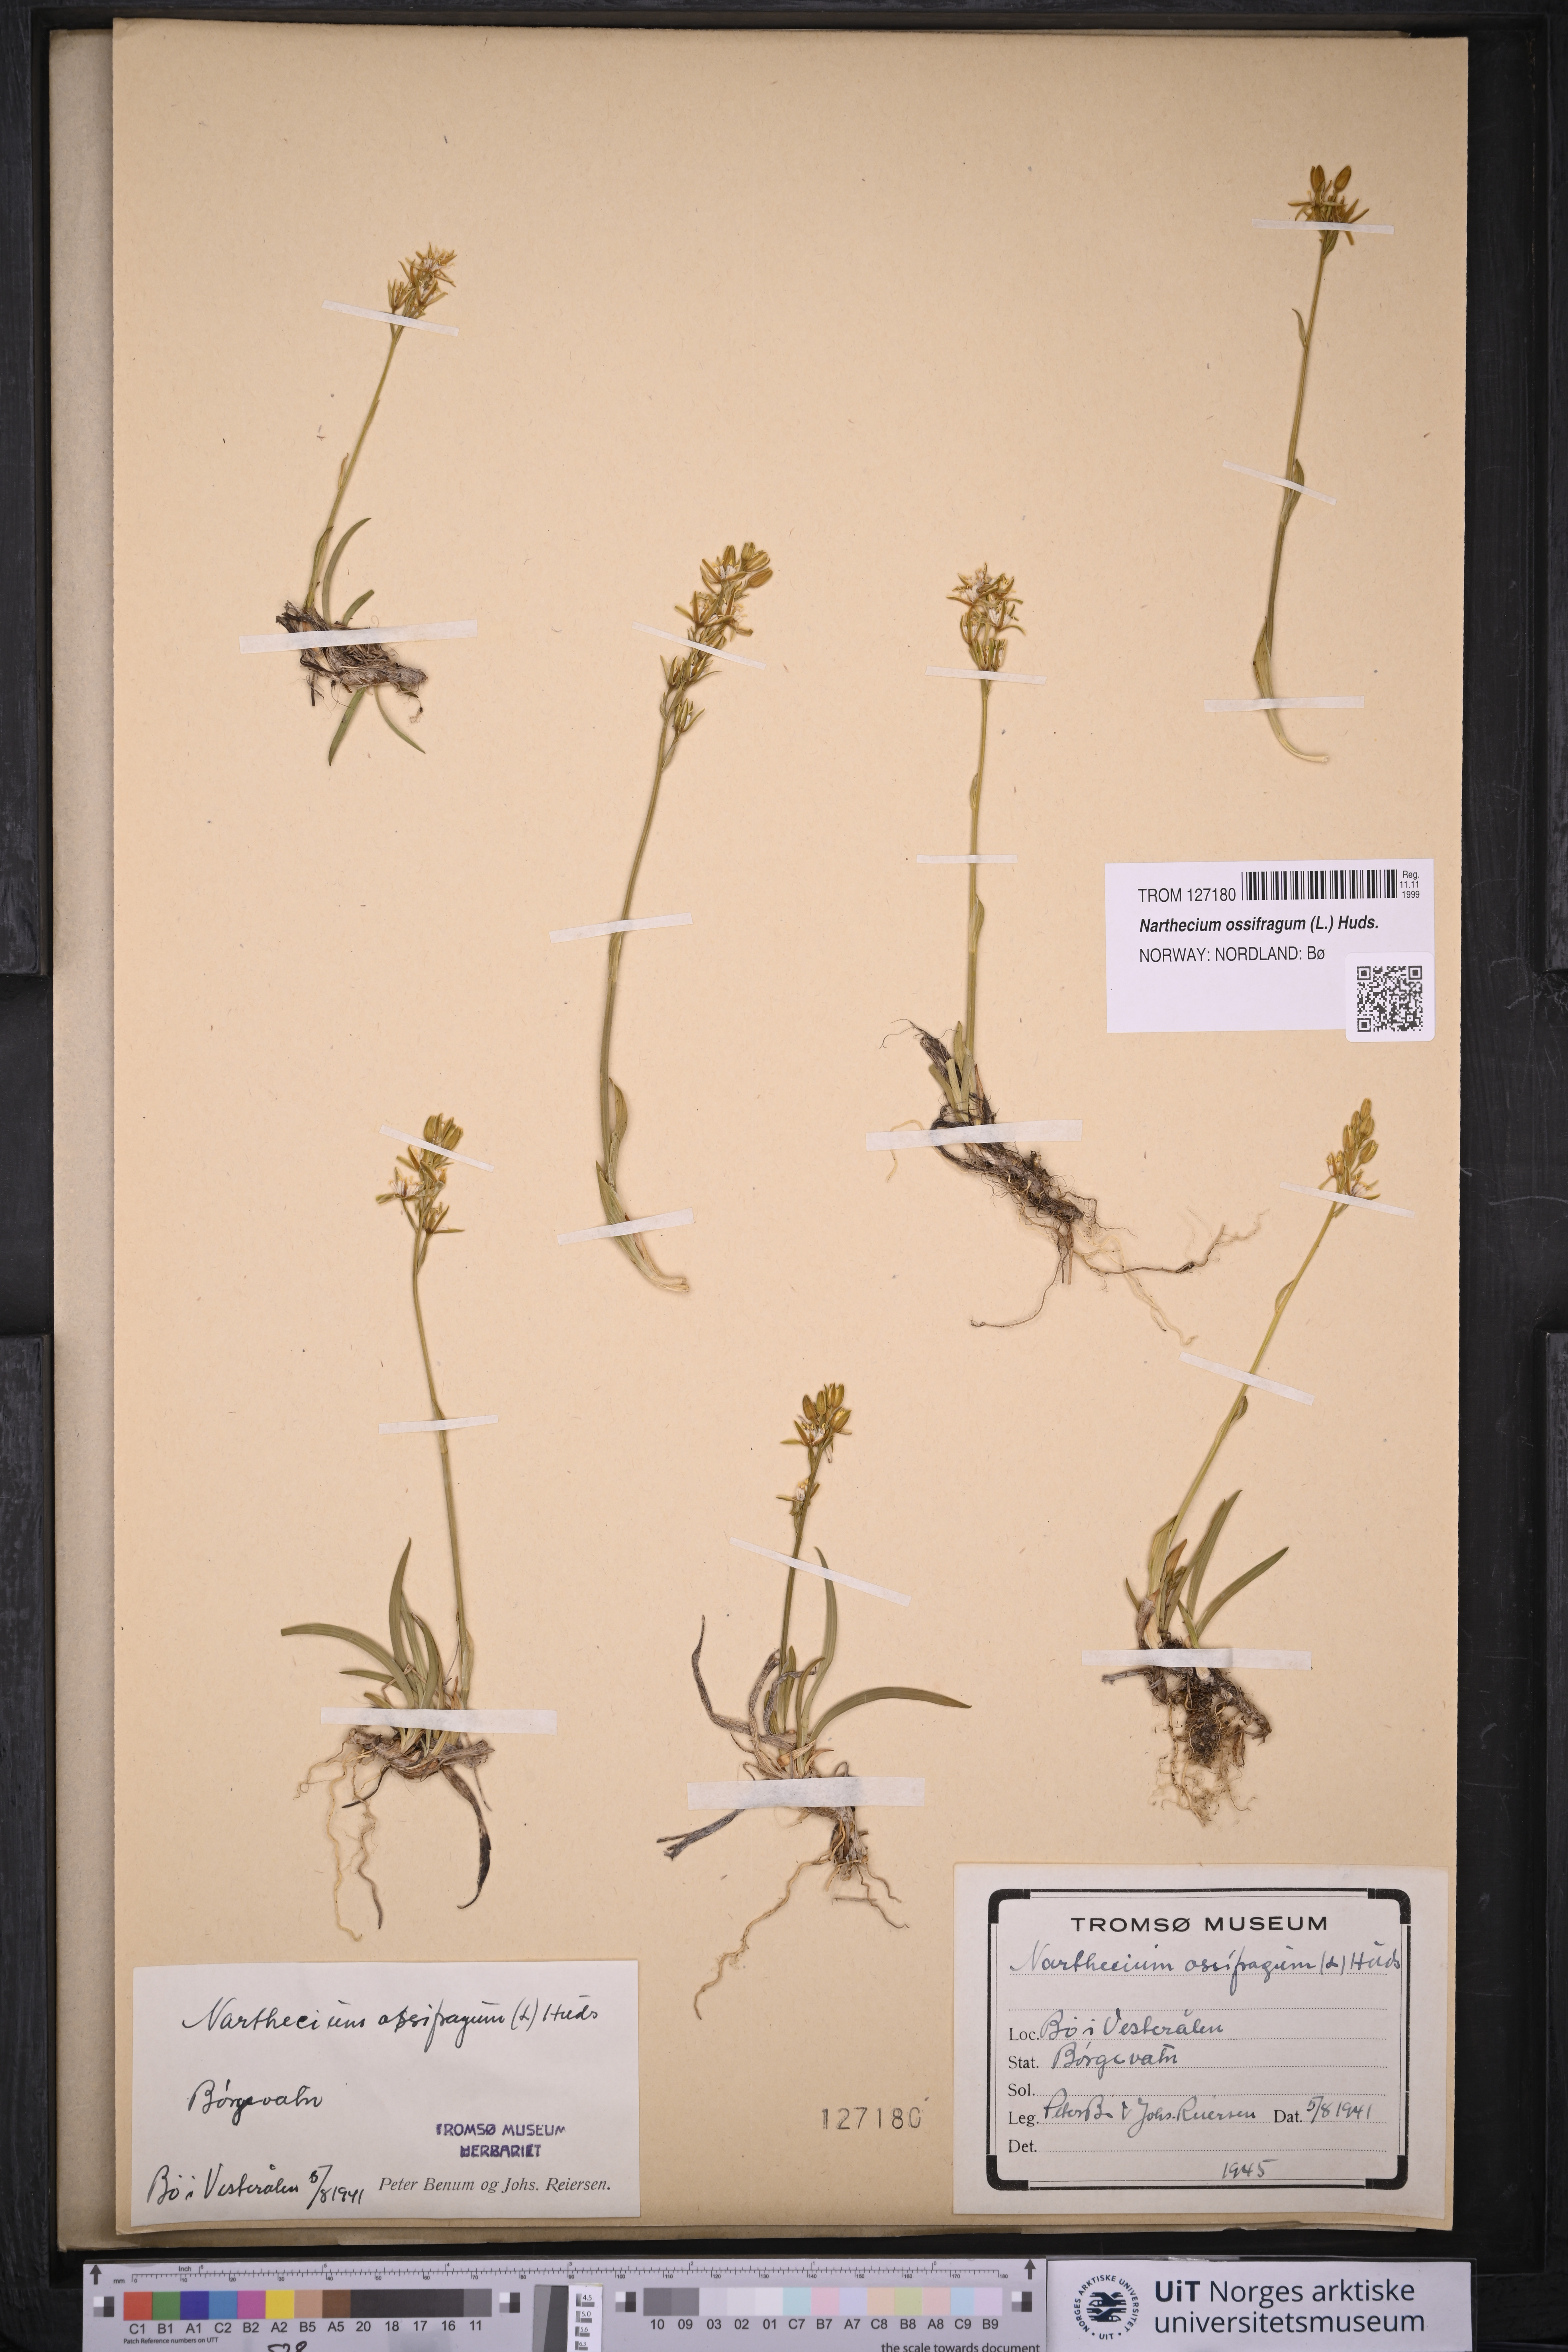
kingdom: Plantae
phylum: Tracheophyta
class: Liliopsida
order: Dioscoreales
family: Nartheciaceae
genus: Narthecium
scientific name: Narthecium ossifragum
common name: Bog asphodel
